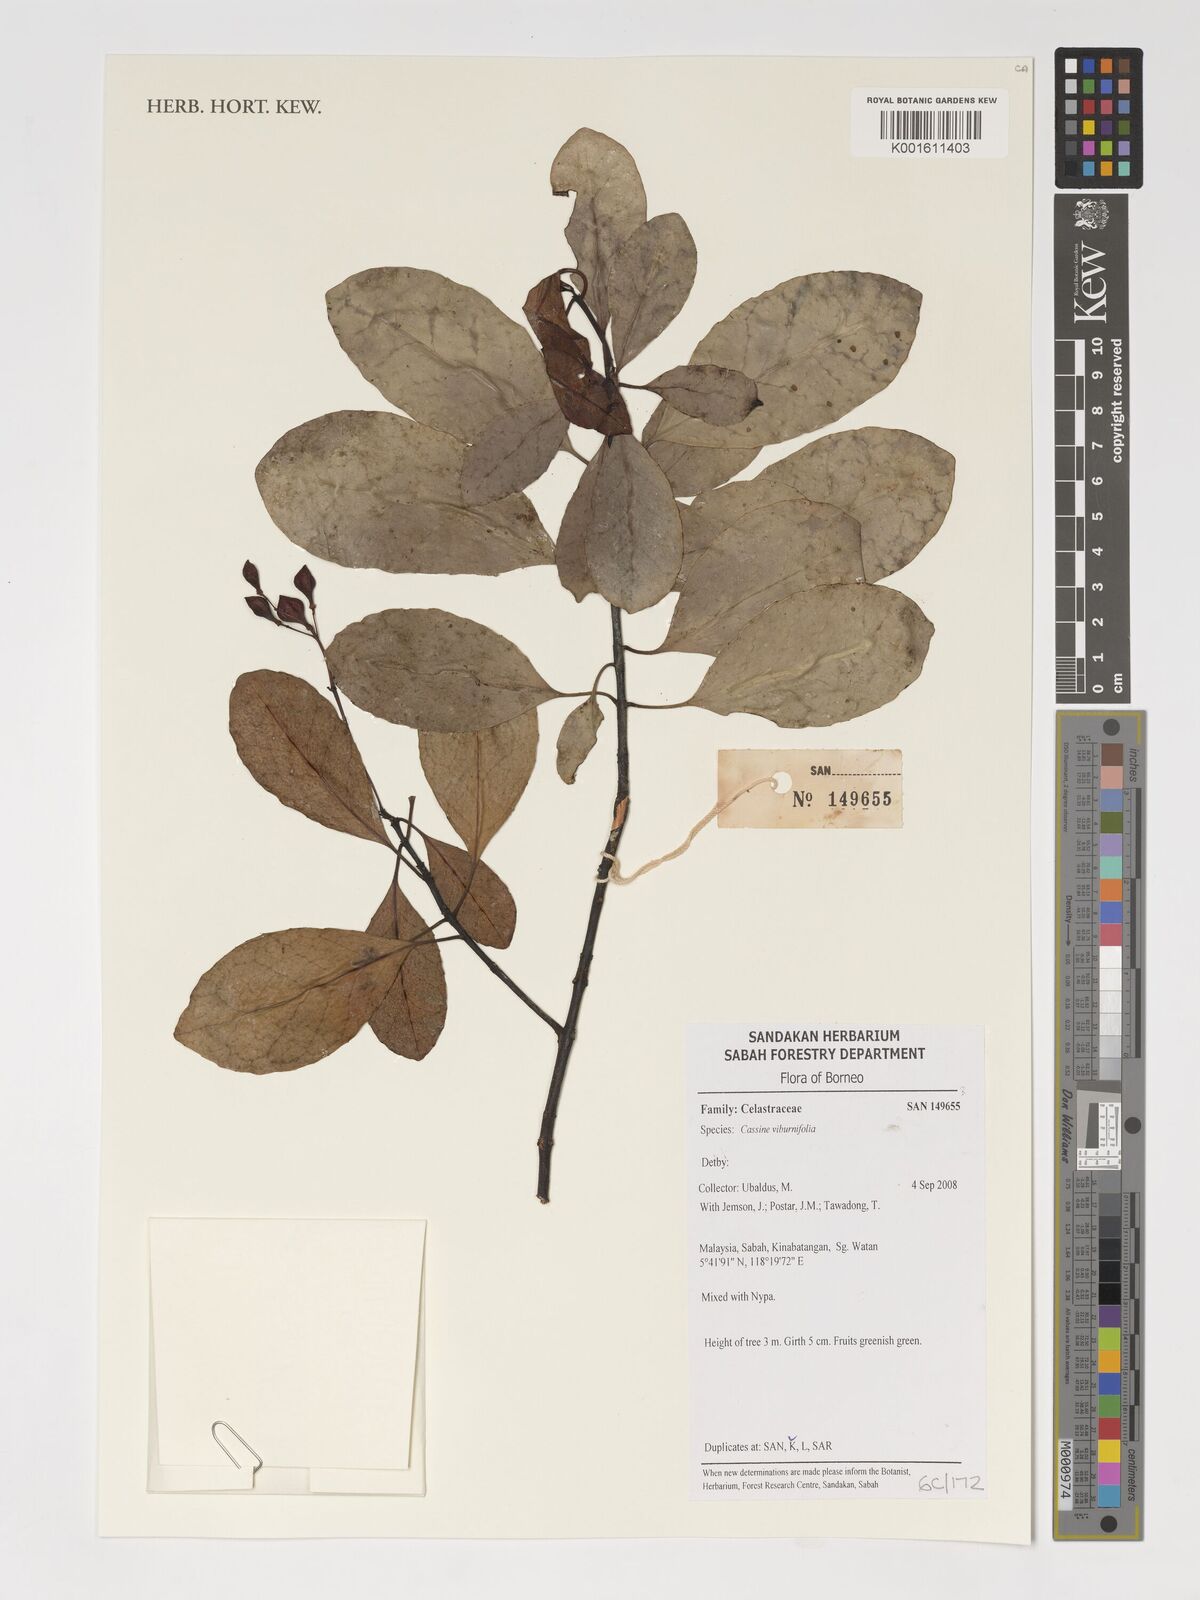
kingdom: Plantae
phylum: Tracheophyta
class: Magnoliopsida
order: Celastrales
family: Celastraceae
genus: Elaeodendron
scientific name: Elaeodendron viburnifolium
